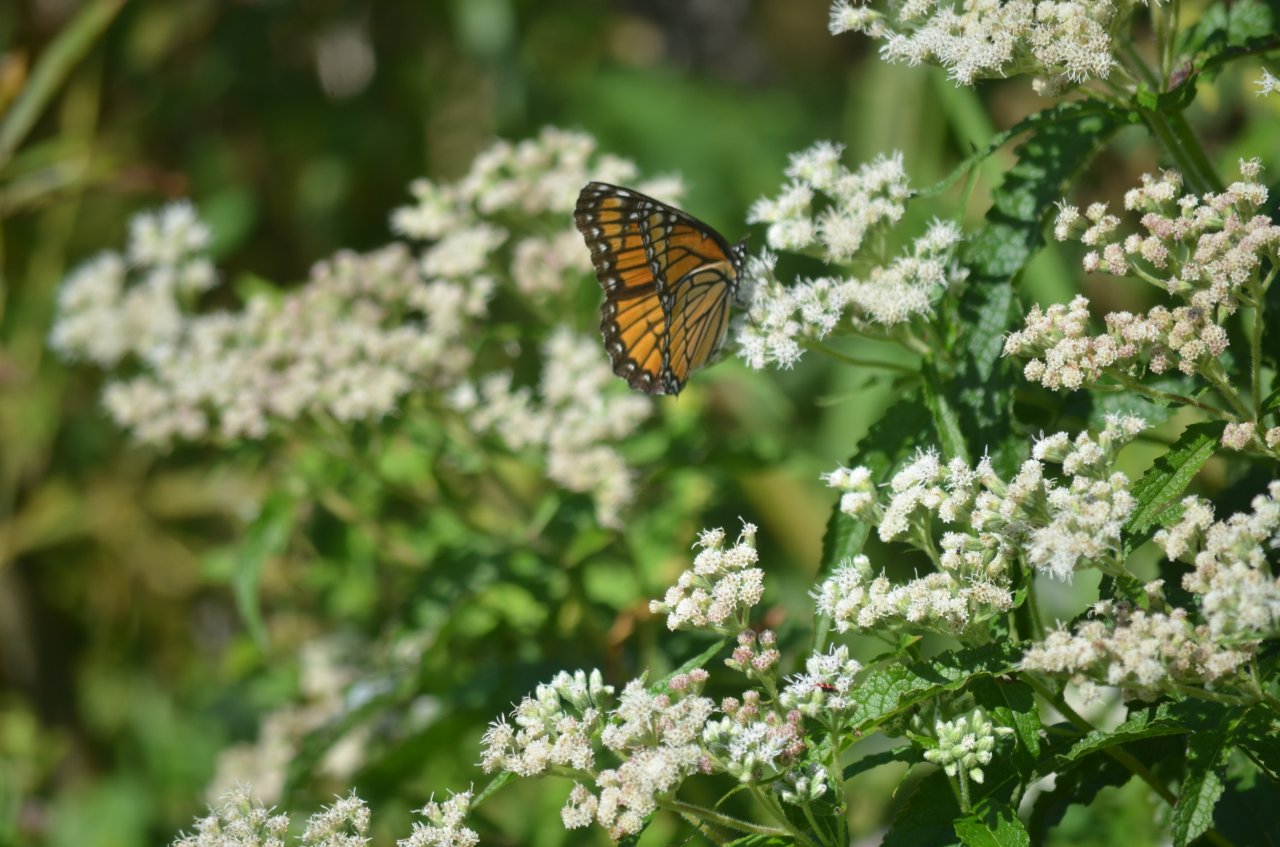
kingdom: Animalia
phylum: Arthropoda
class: Insecta
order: Lepidoptera
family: Nymphalidae
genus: Limenitis
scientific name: Limenitis archippus
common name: Viceroy
